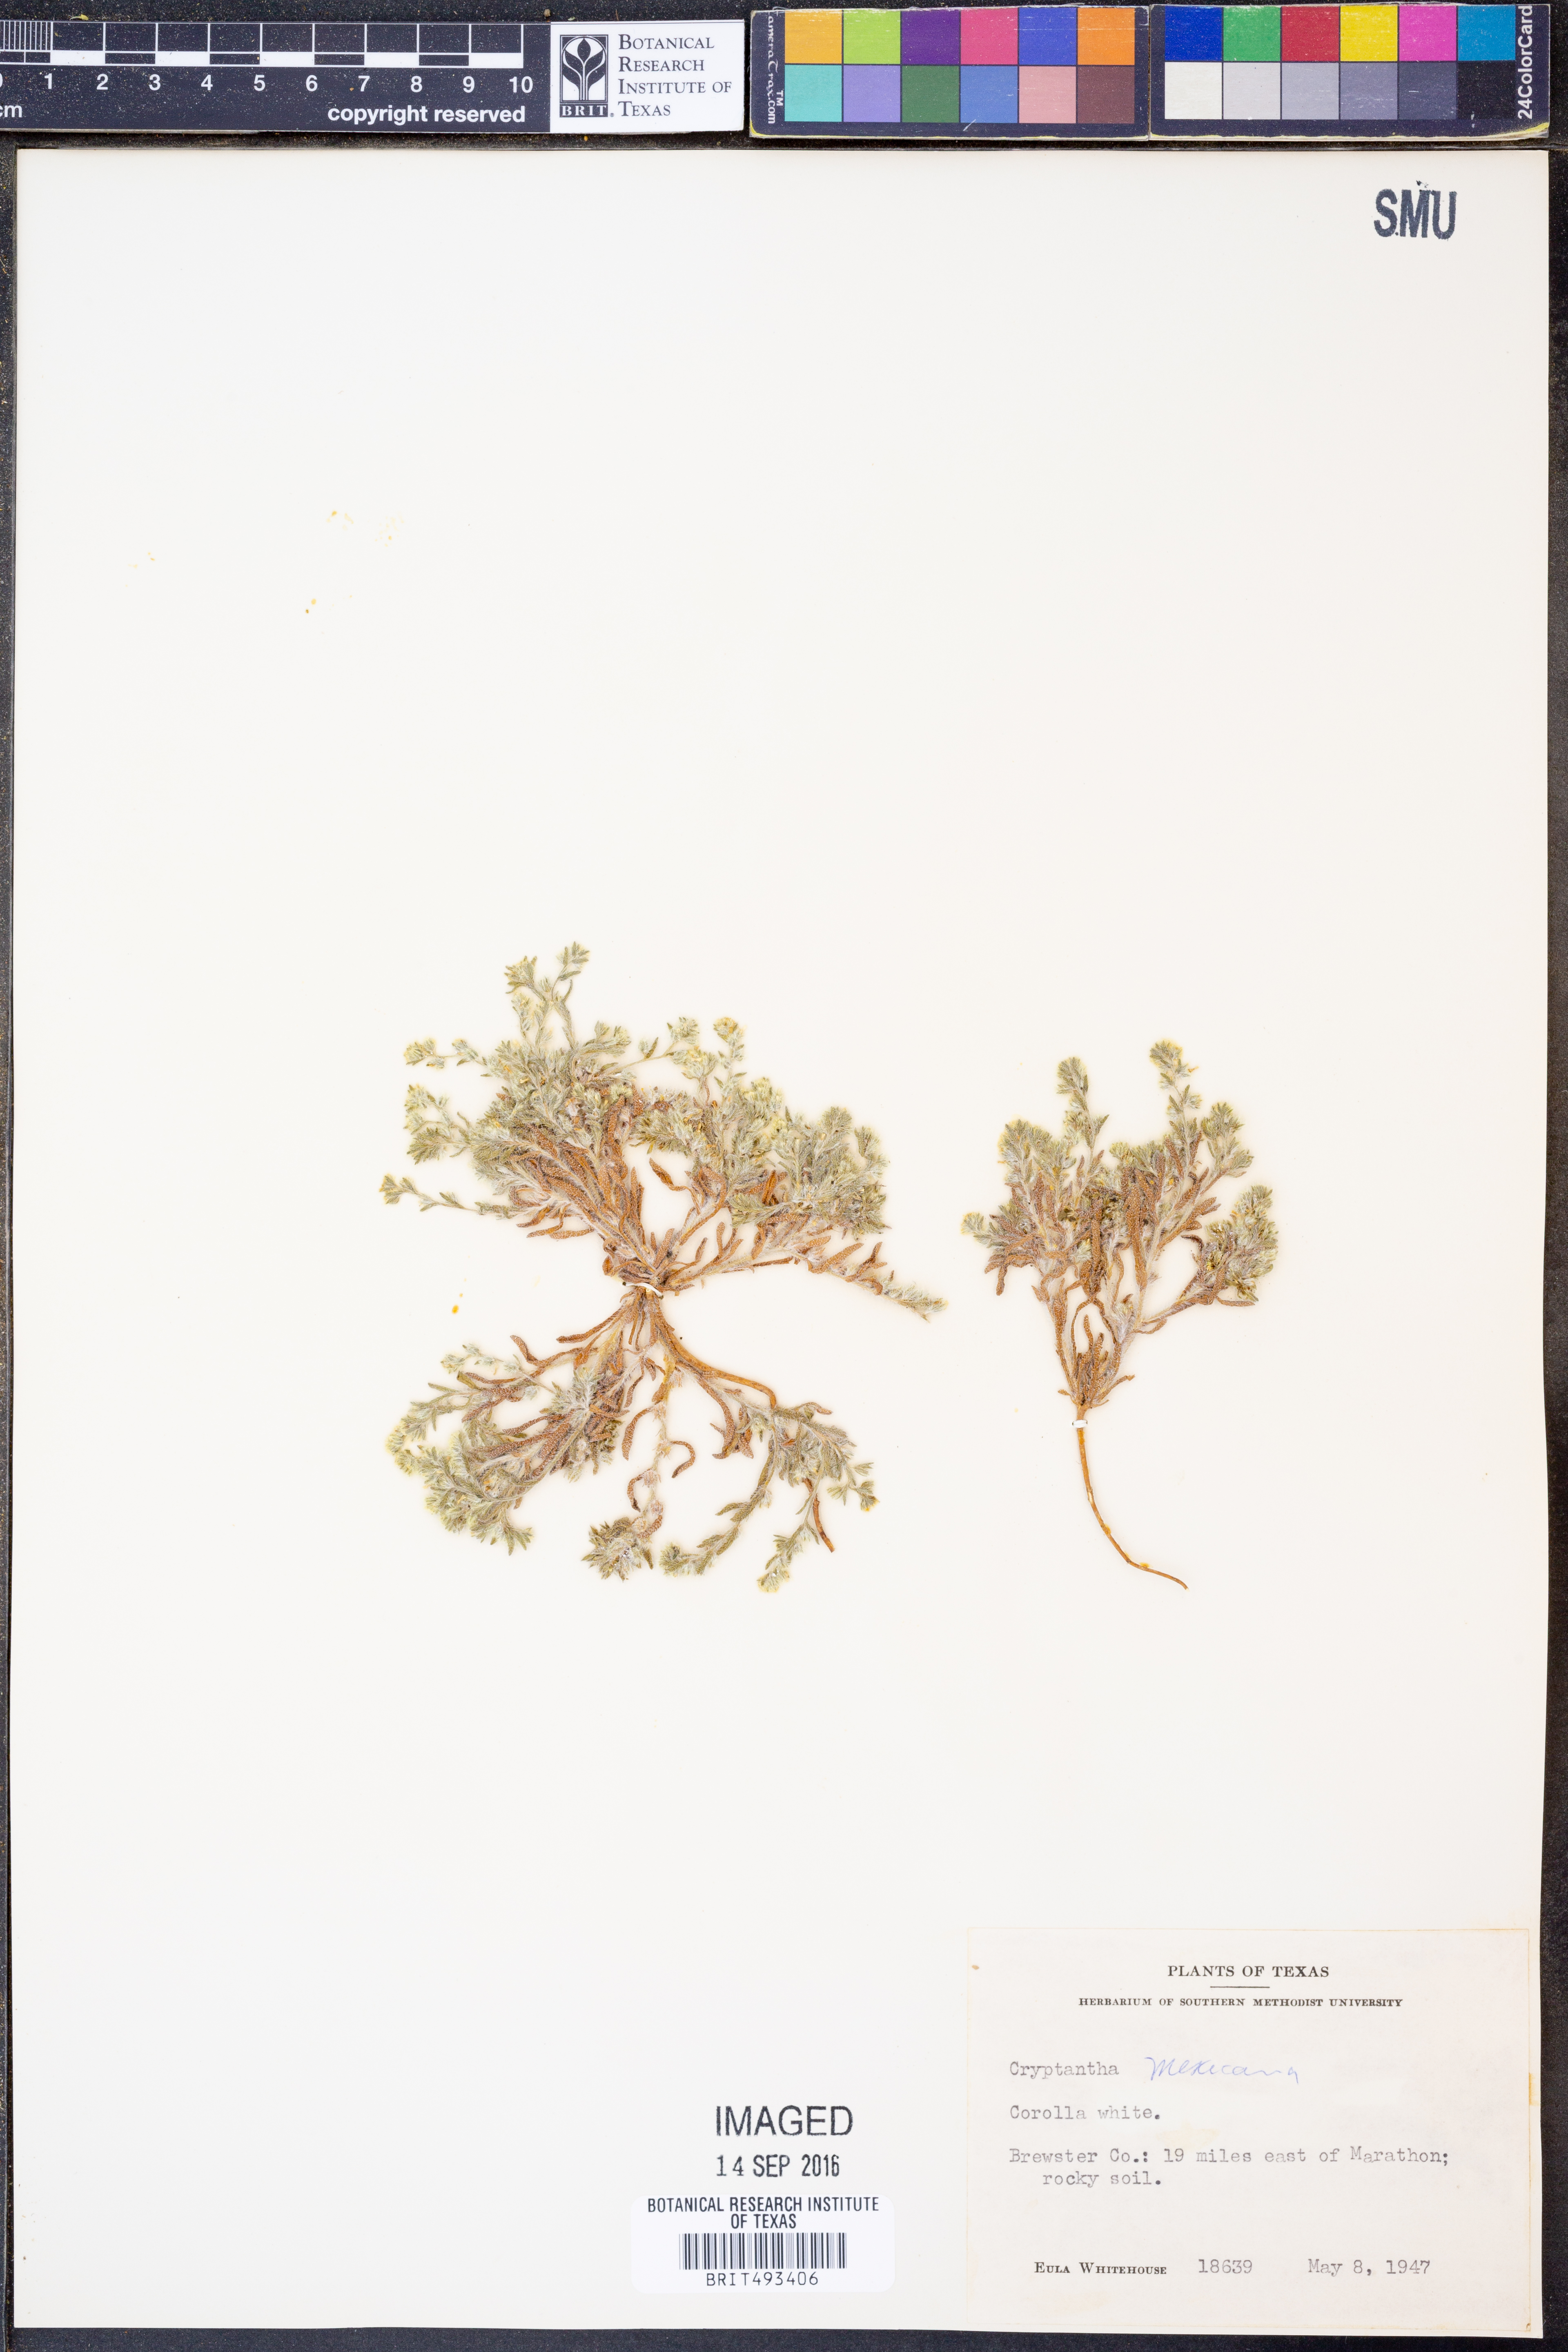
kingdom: Plantae
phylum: Tracheophyta
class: Magnoliopsida
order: Boraginales
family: Boraginaceae
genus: Johnstonella
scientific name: Johnstonella mexicana
